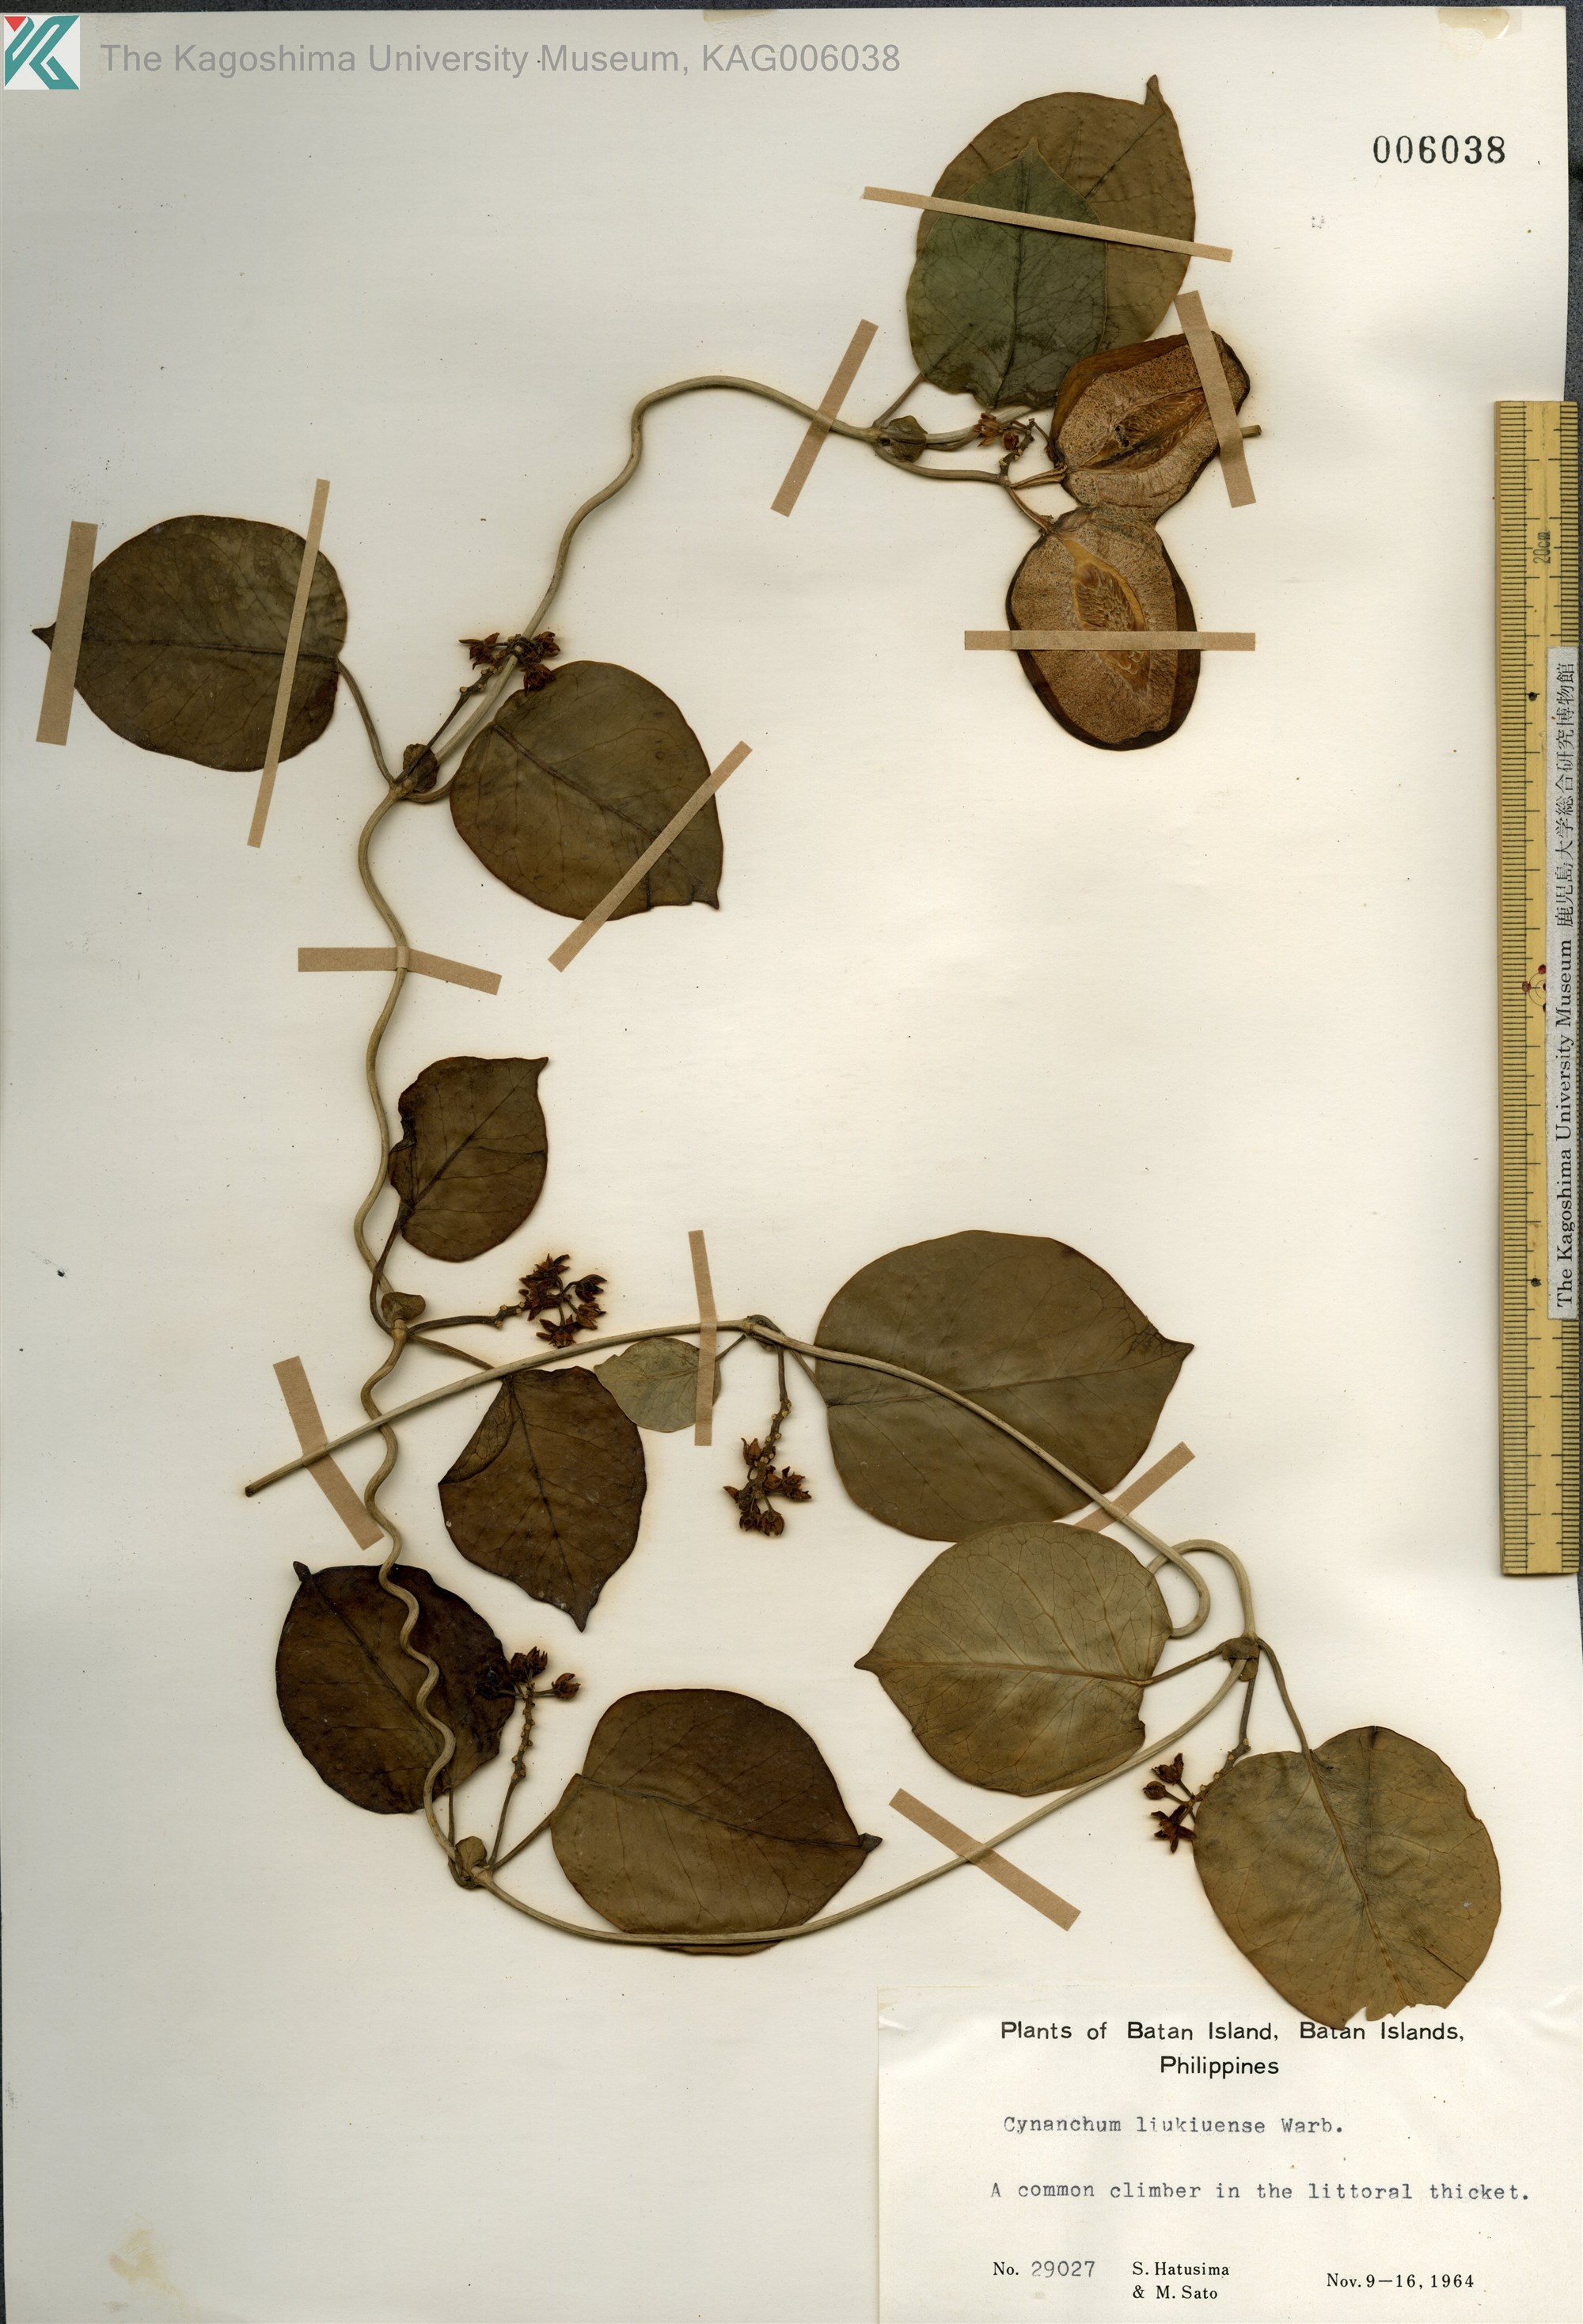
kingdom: Plantae
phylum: Tracheophyta
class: Magnoliopsida
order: Gentianales
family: Apocynaceae
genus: Cynanchum
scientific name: Cynanchum liukiuense
